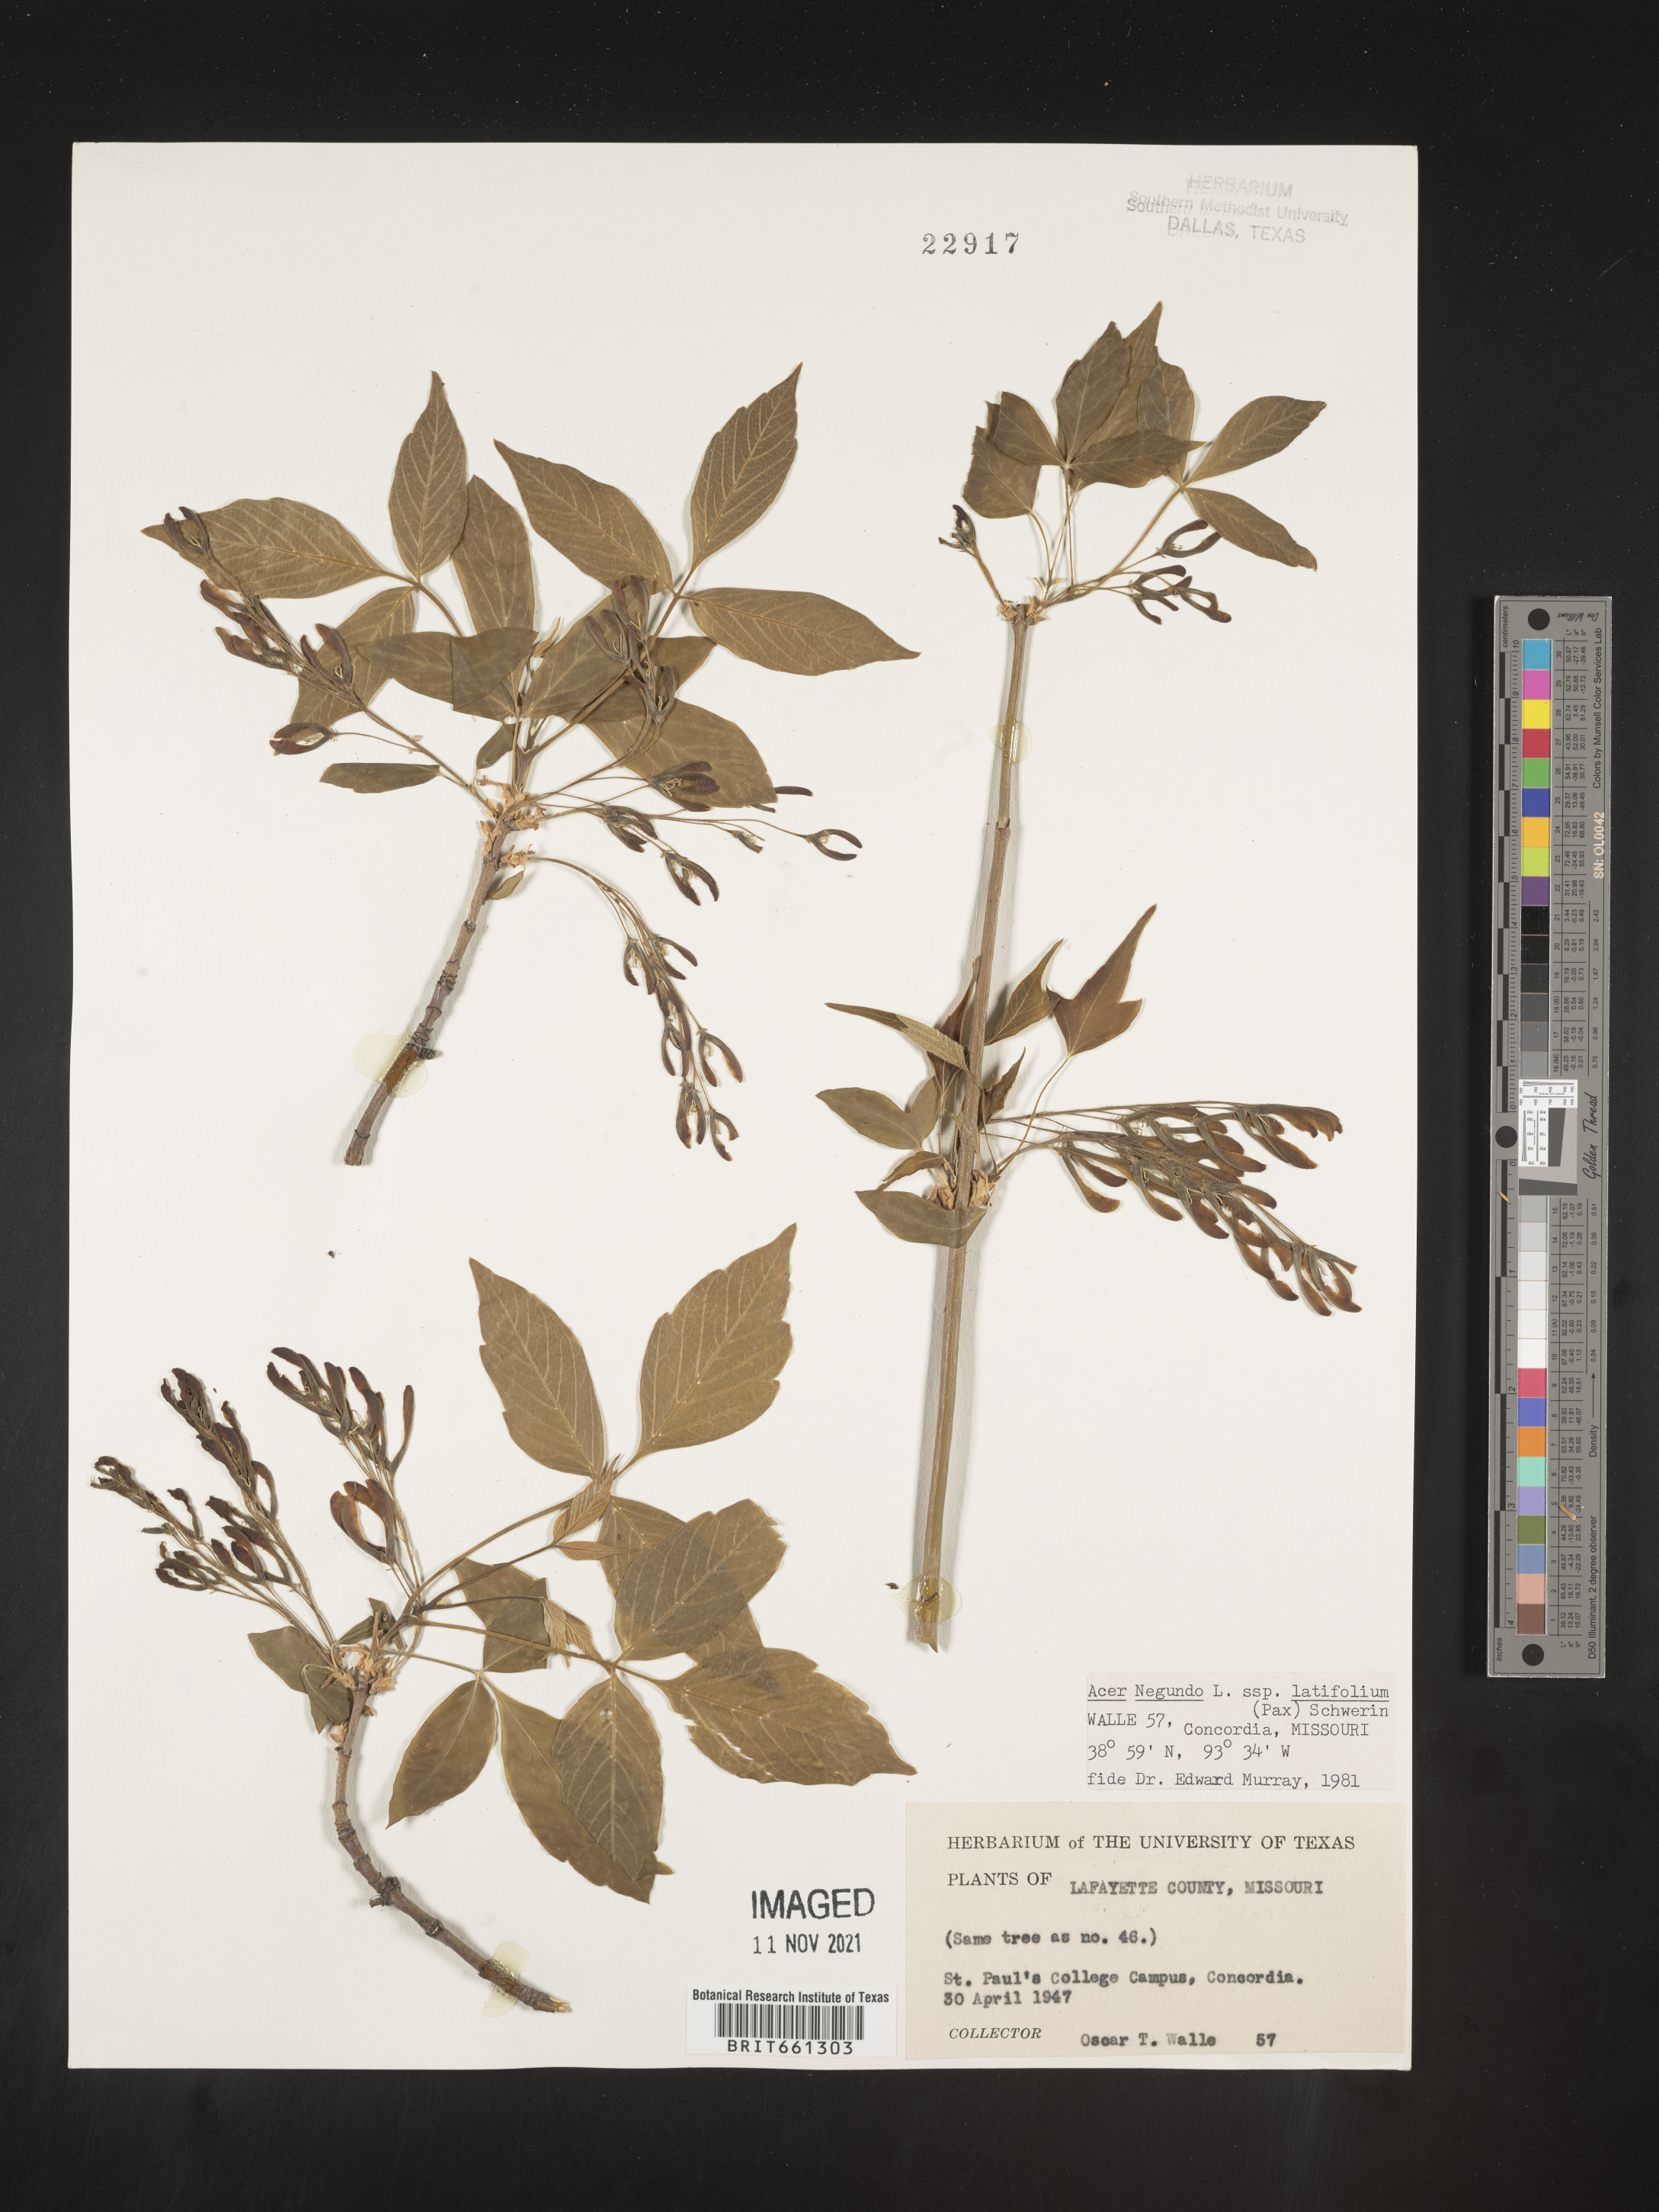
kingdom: Plantae
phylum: Tracheophyta
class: Magnoliopsida
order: Sapindales
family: Sapindaceae
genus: Acer
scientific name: Acer negundo
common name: Ashleaf maple
